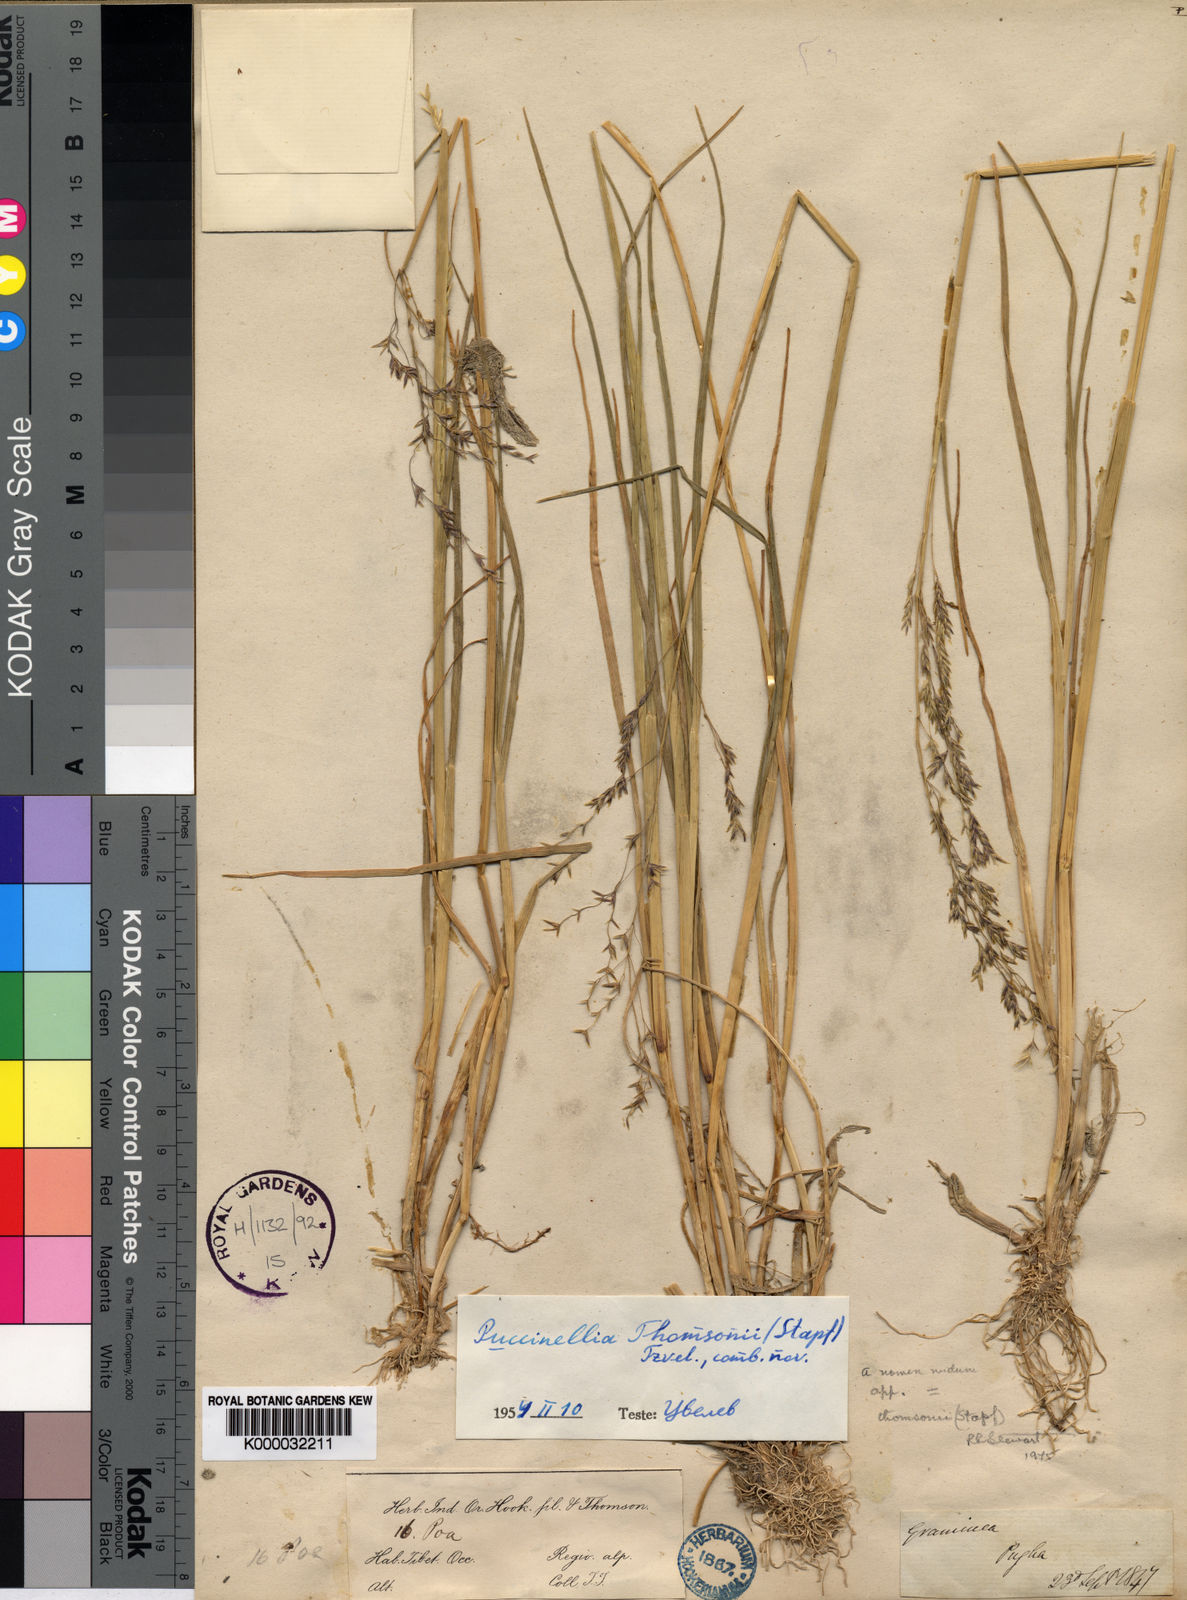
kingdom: Plantae
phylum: Tracheophyta
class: Liliopsida
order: Poales
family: Poaceae
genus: Puccinellia
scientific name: Puccinellia thomsonii
